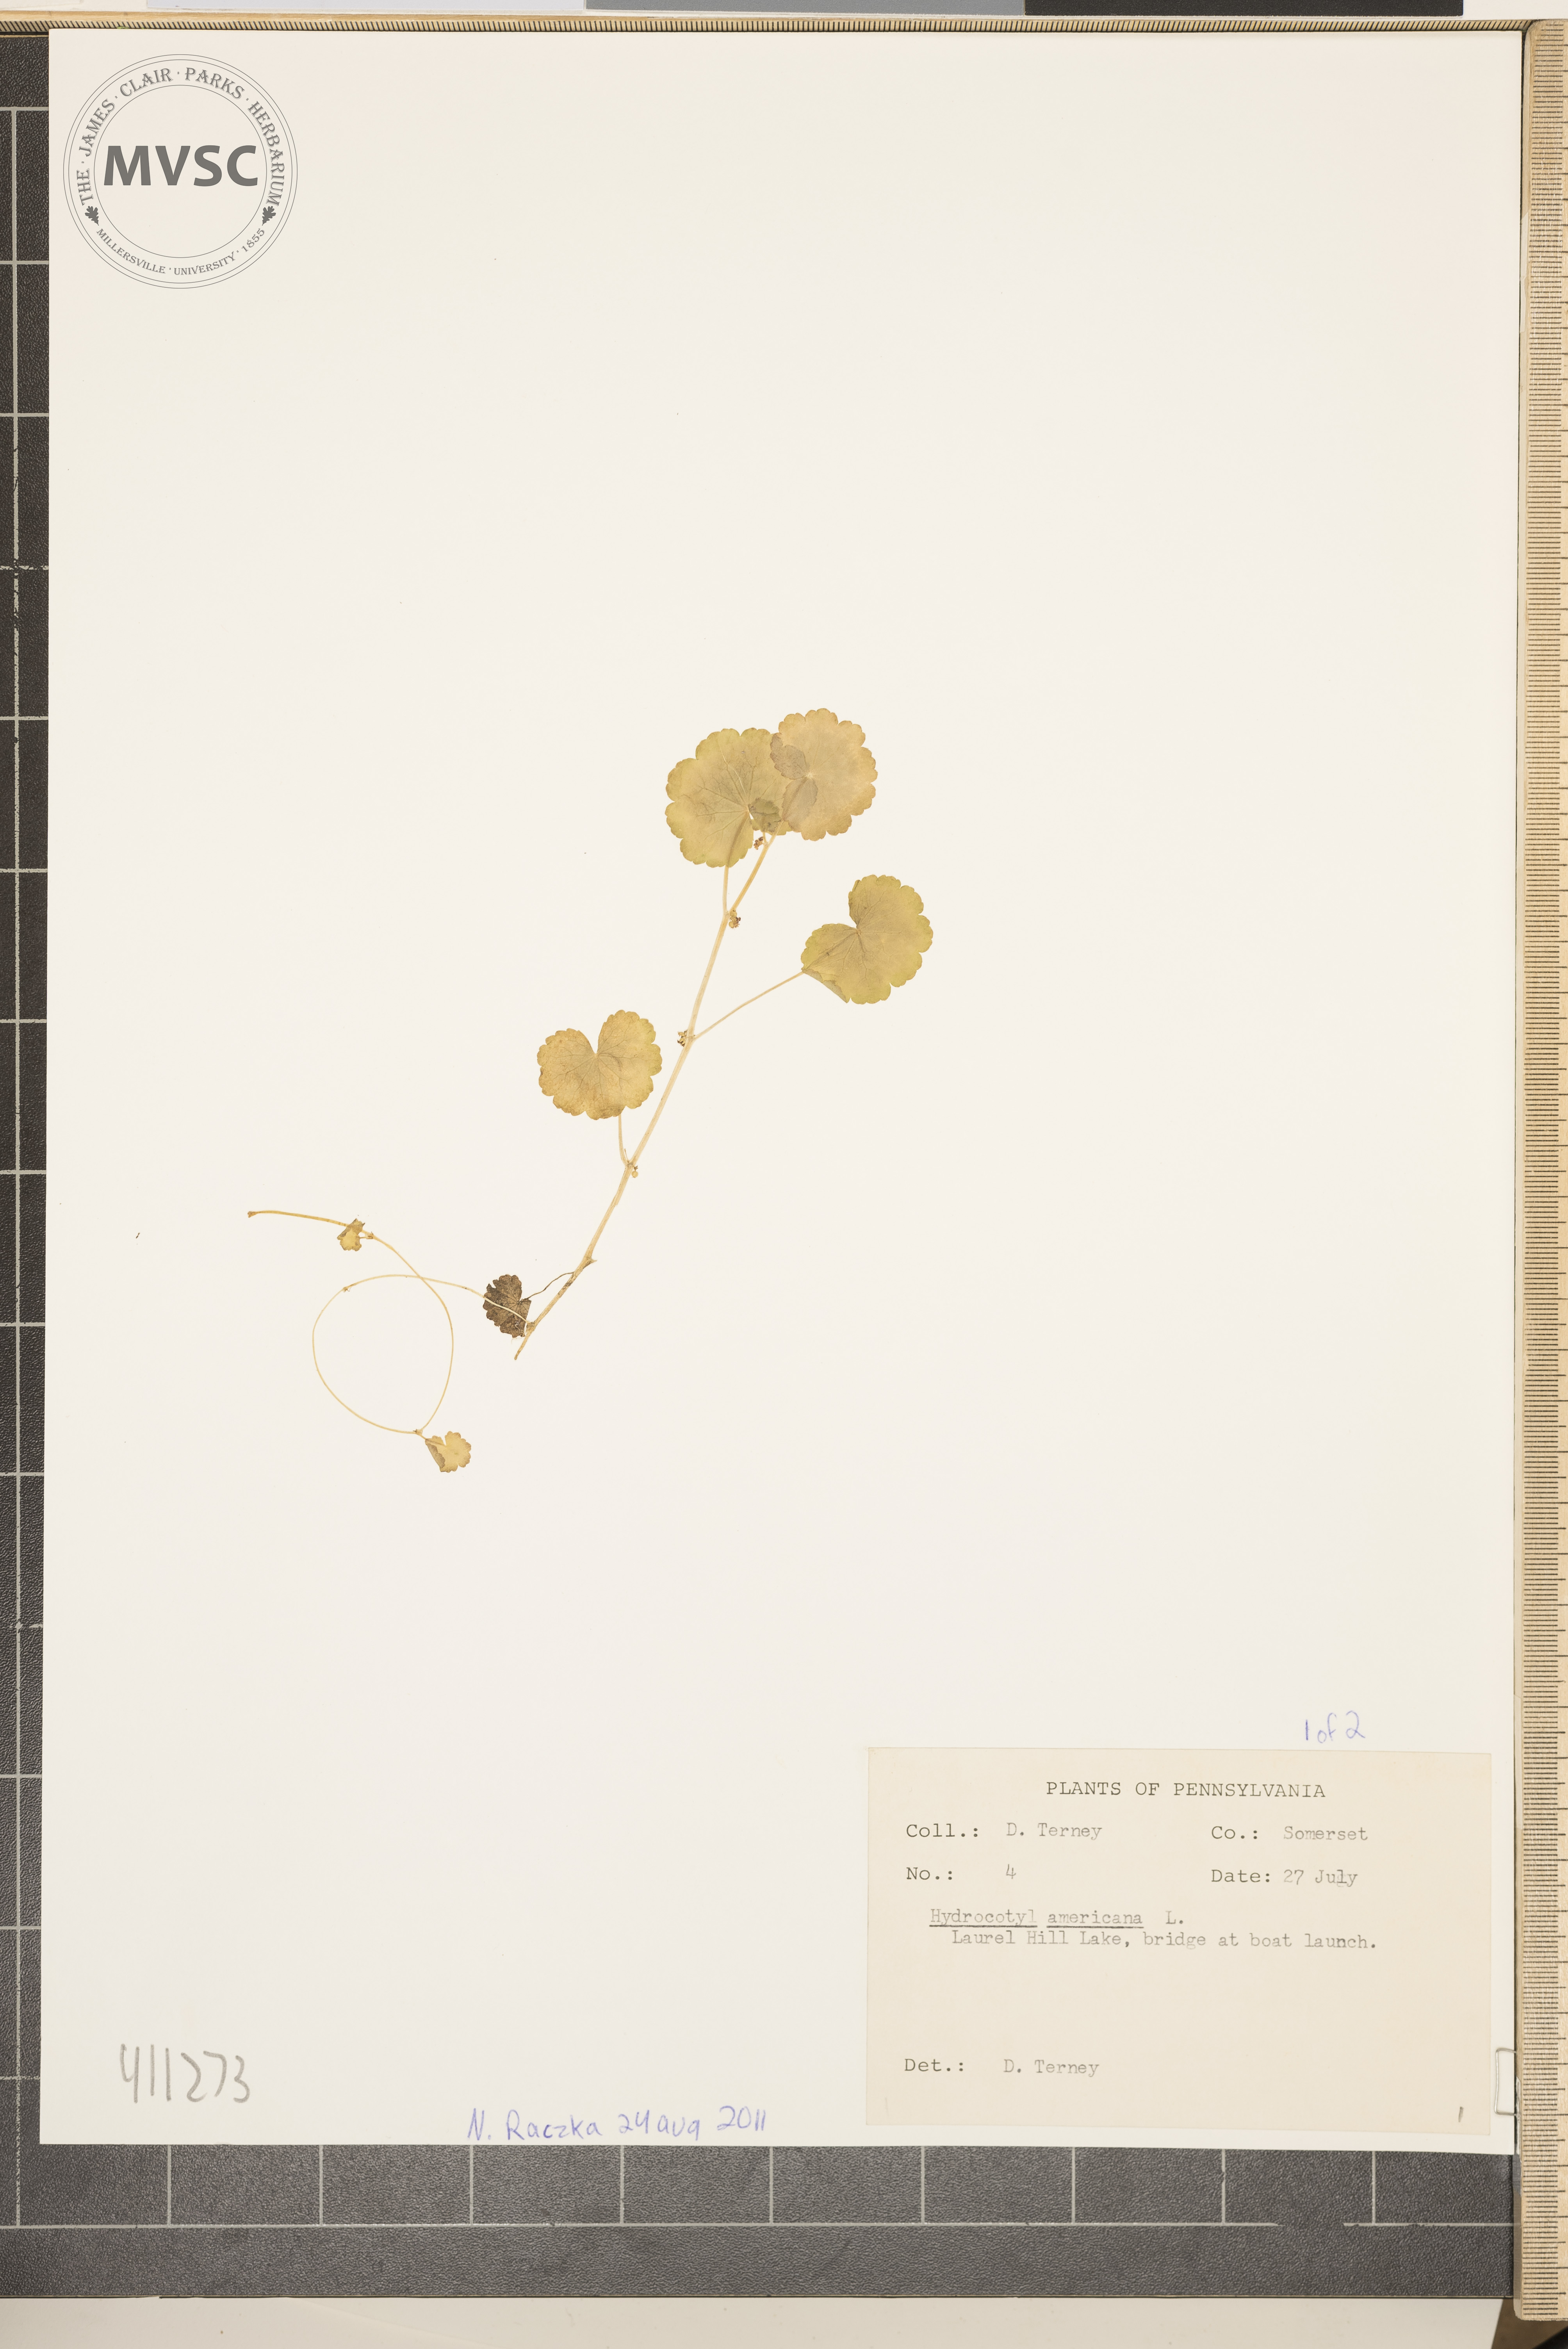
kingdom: Plantae
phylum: Tracheophyta
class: Magnoliopsida
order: Apiales
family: Araliaceae
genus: Hydrocotyle
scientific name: Hydrocotyle americana
